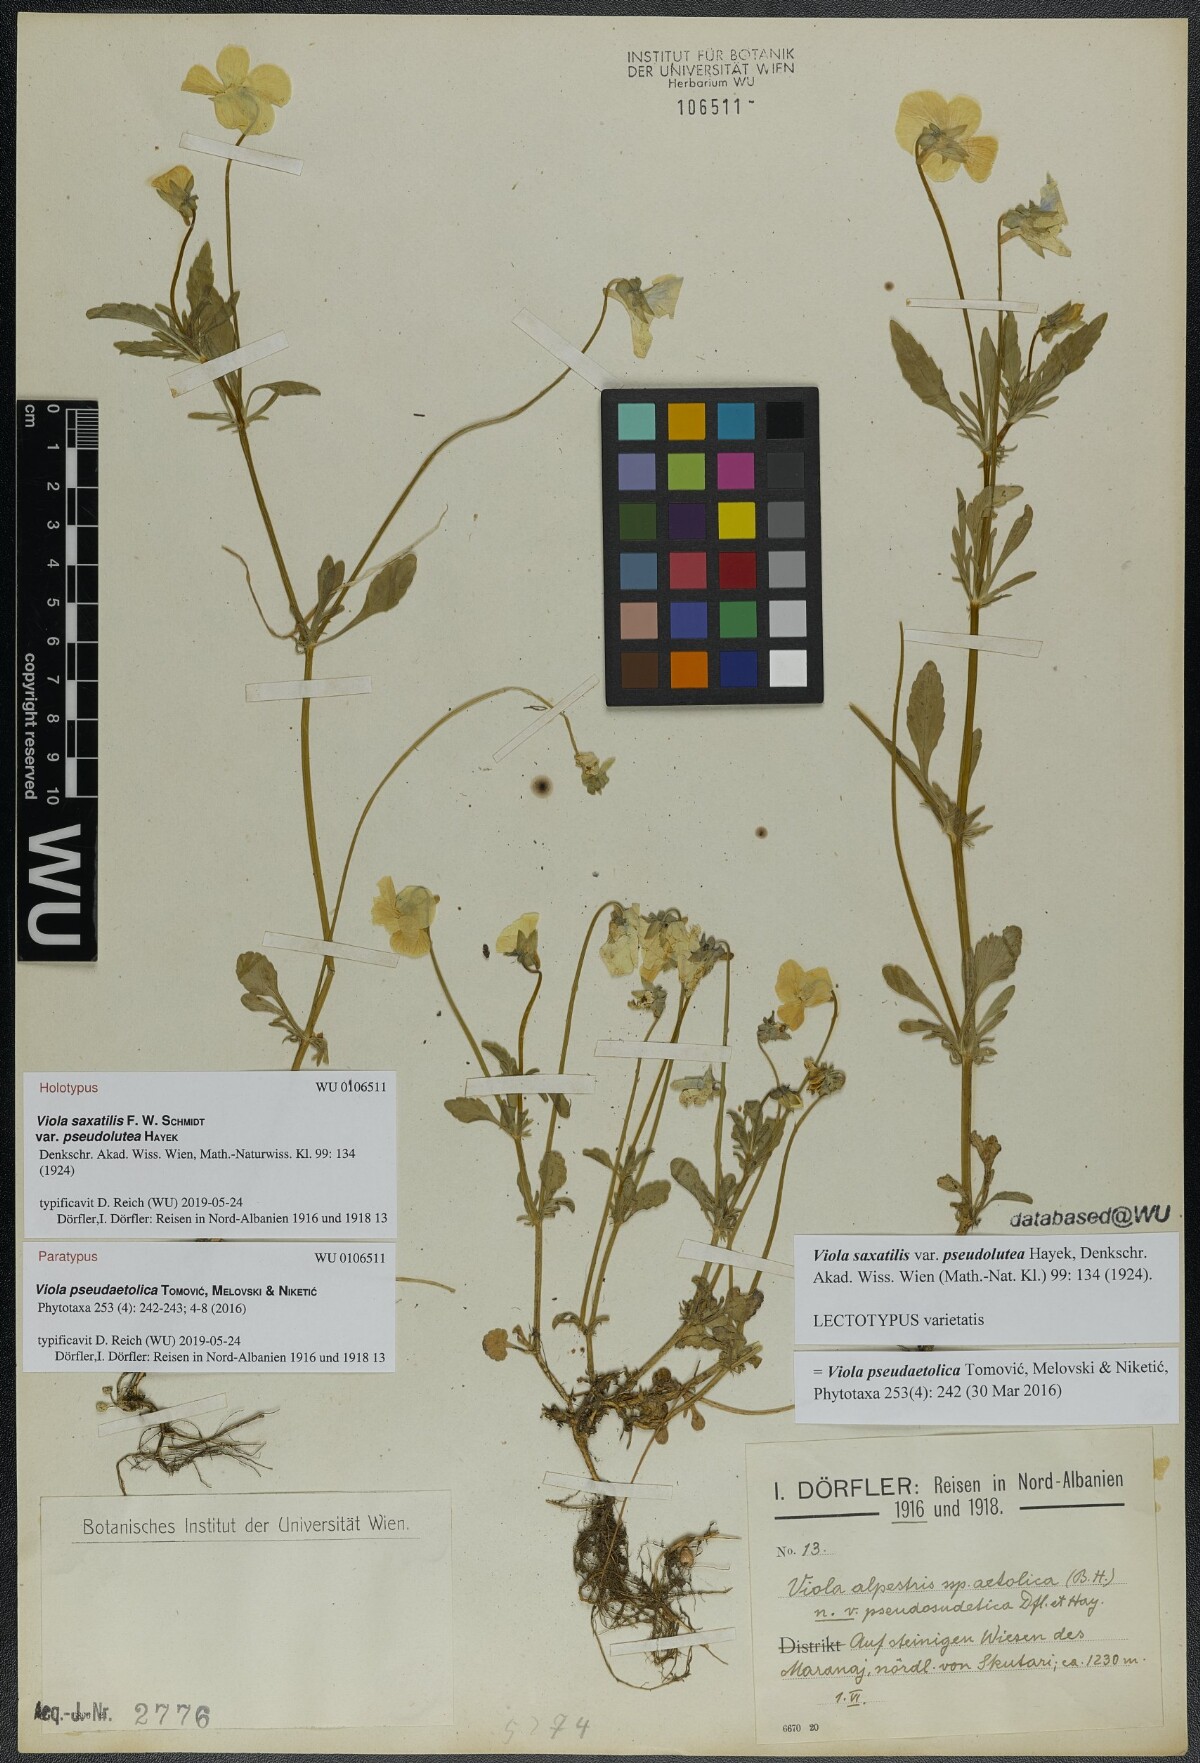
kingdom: Plantae
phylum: Tracheophyta
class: Magnoliopsida
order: Malpighiales
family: Violaceae
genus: Viola
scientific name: Viola pseudaetolica
